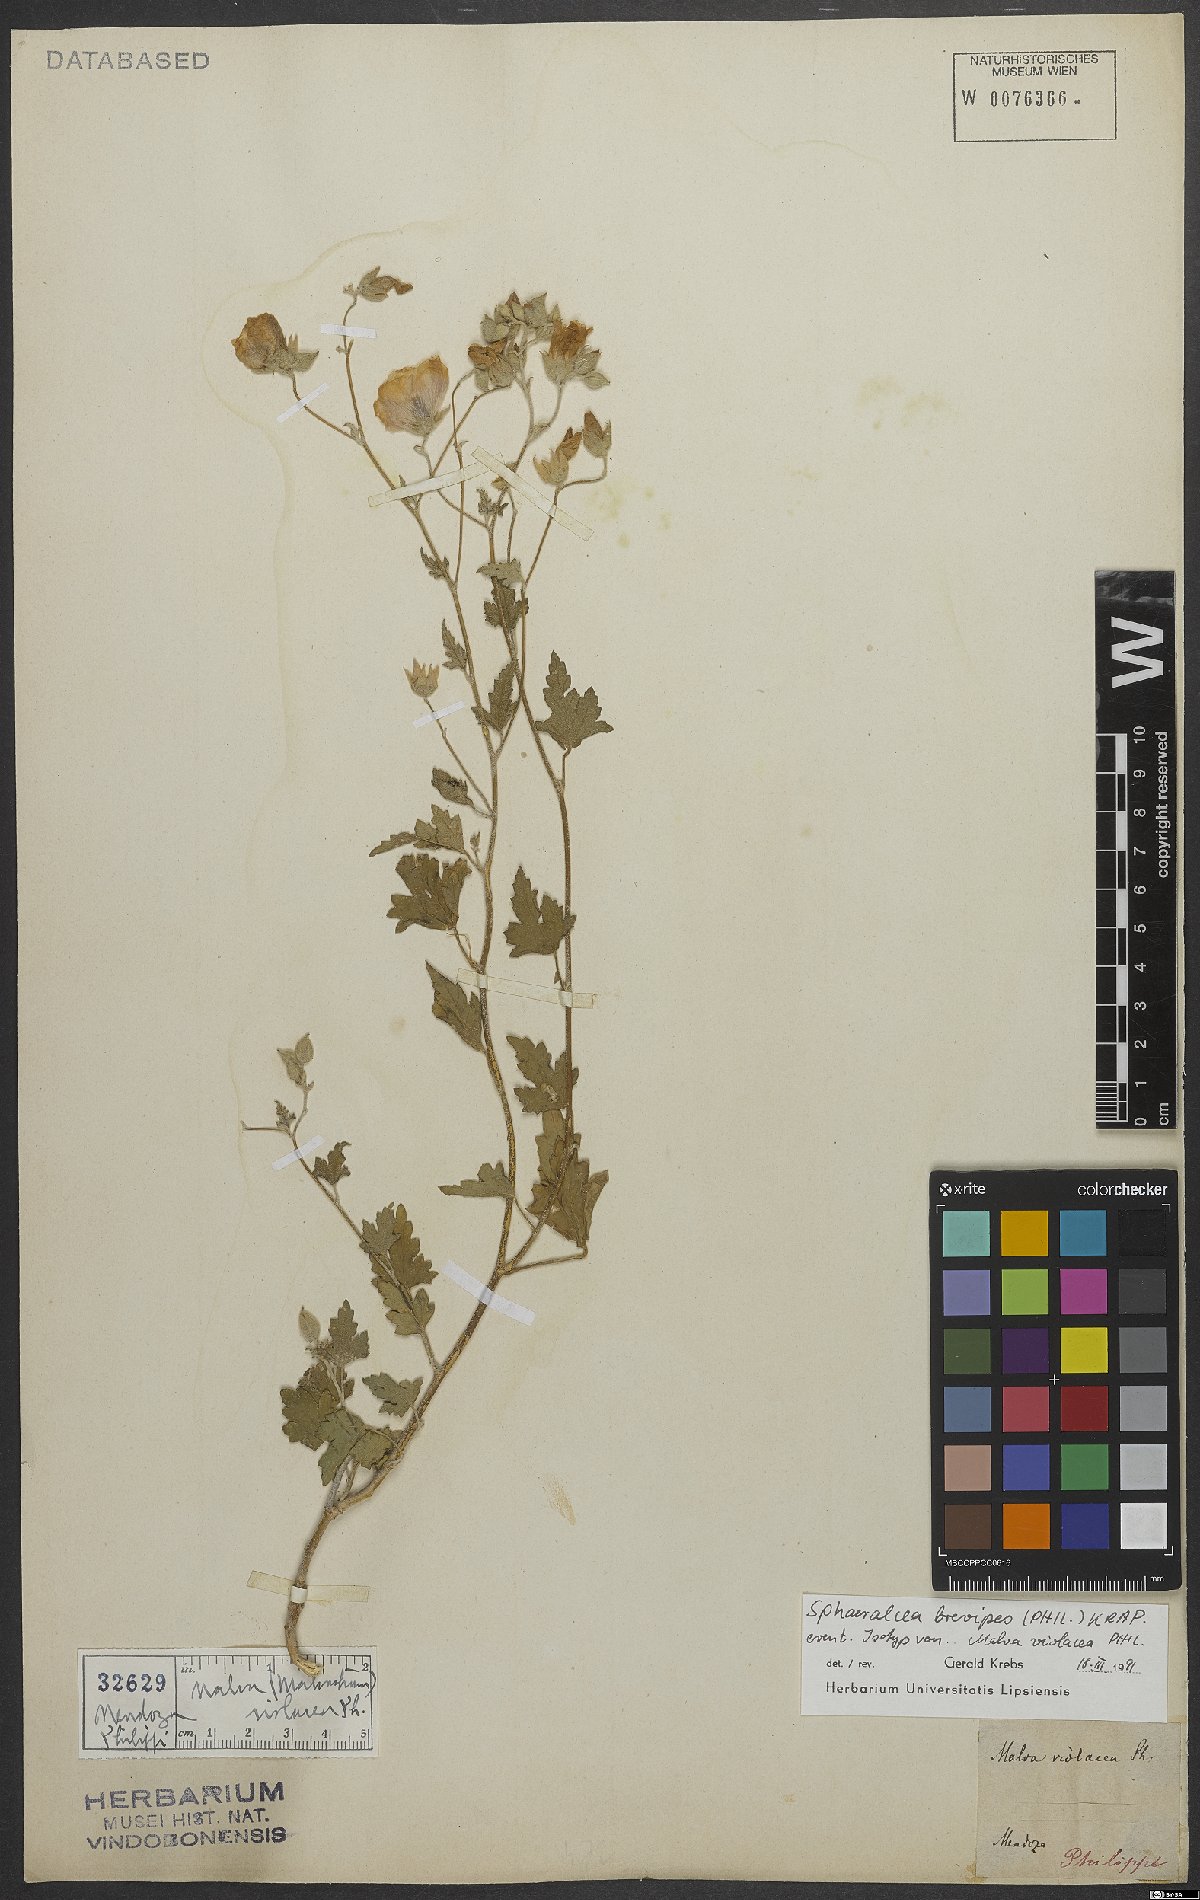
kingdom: Plantae
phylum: Tracheophyta
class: Magnoliopsida
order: Malvales
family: Malvaceae
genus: Sphaeralcea
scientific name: Sphaeralcea brevipes
